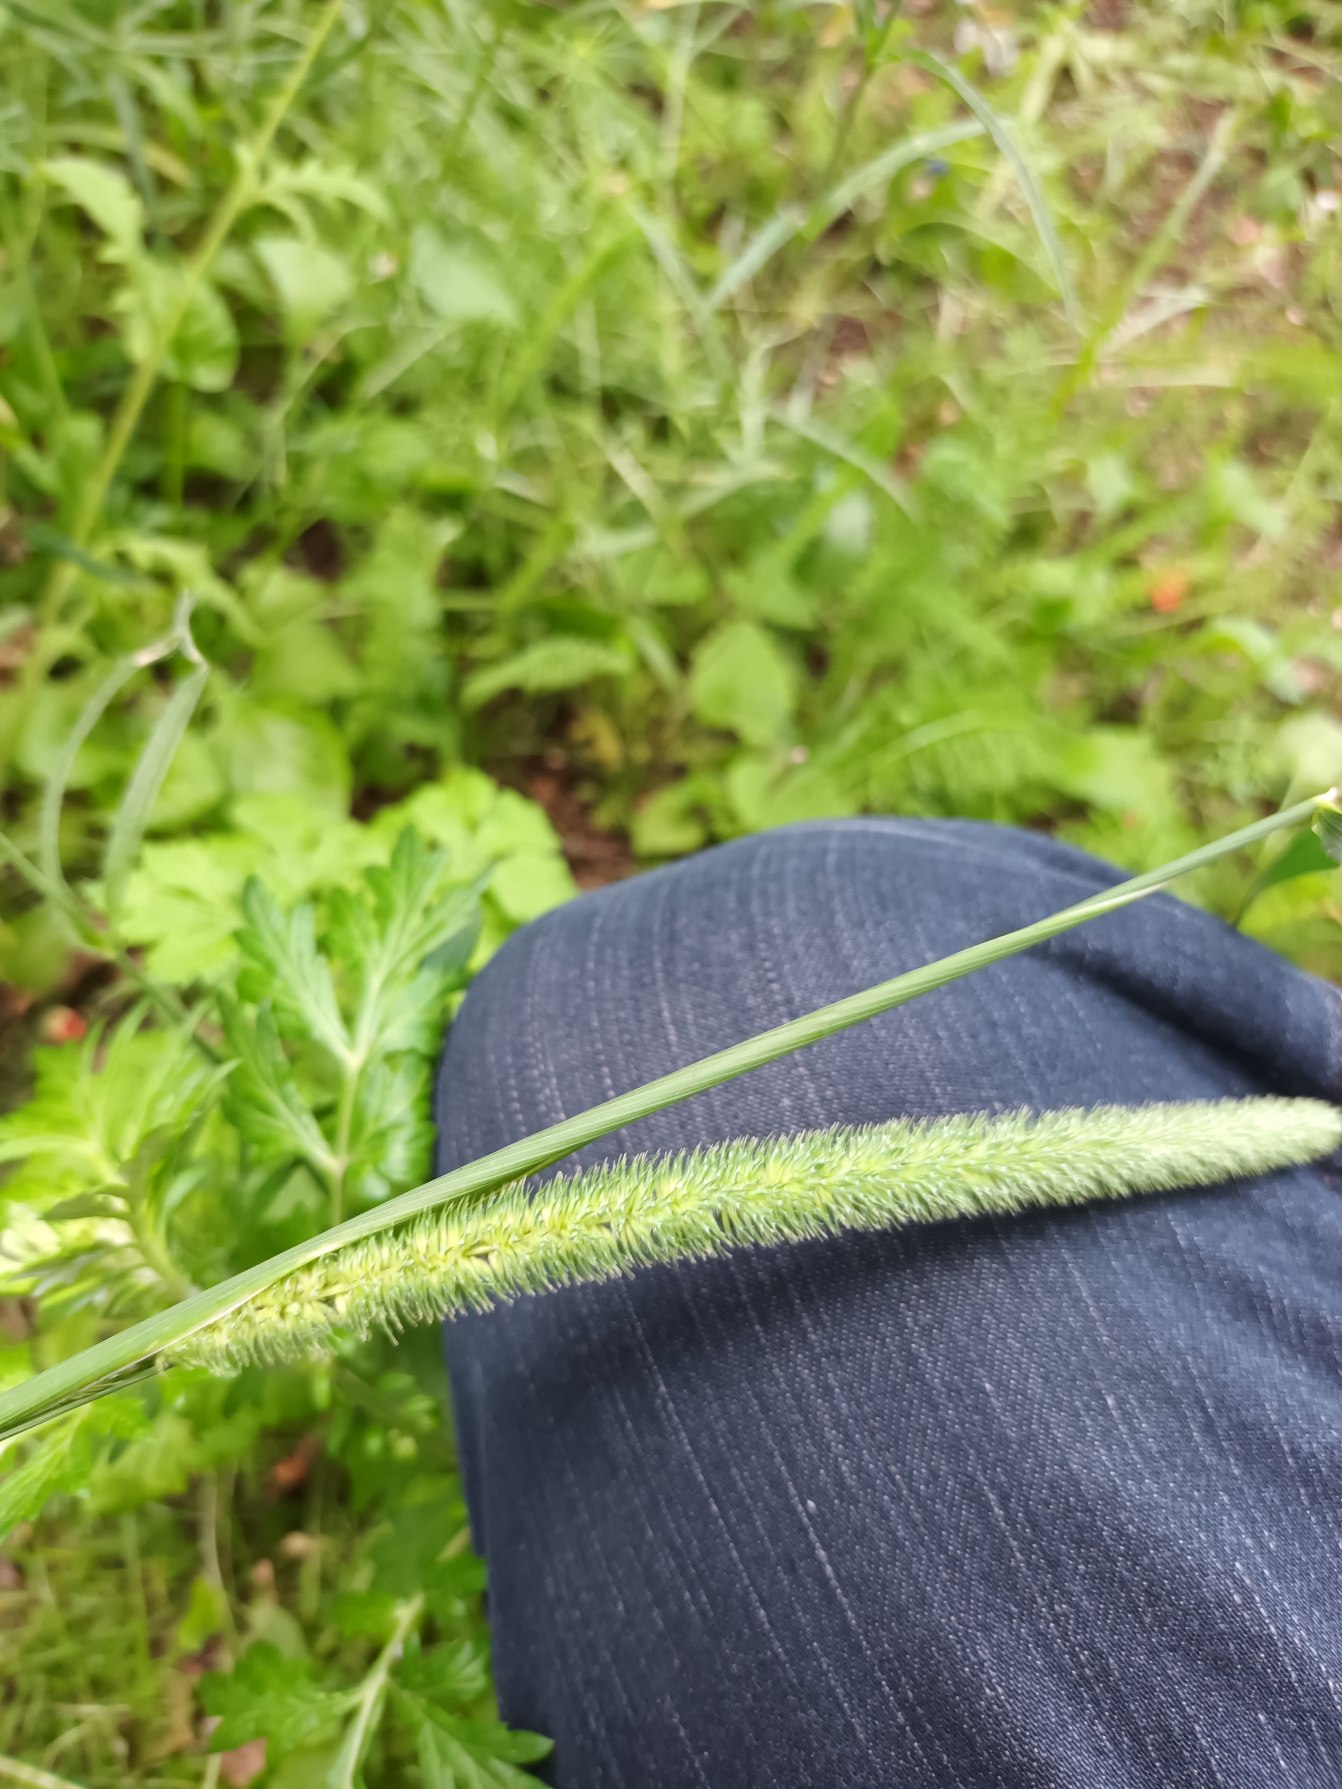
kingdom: Plantae
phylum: Tracheophyta
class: Liliopsida
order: Poales
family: Poaceae
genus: Phleum
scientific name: Phleum pratense
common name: Eng-rottehale
